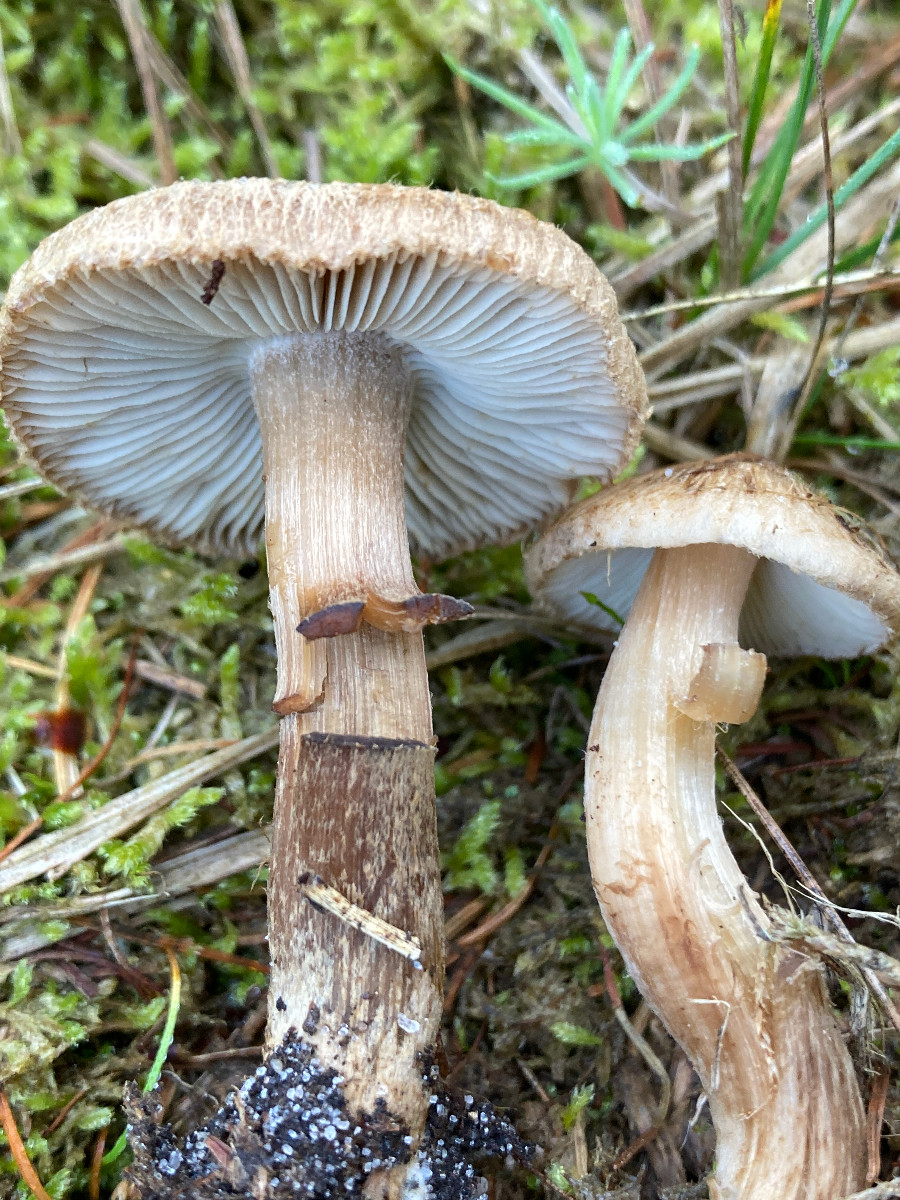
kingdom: Fungi
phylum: Basidiomycota
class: Agaricomycetes
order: Agaricales
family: Inocybaceae
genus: Inocybe
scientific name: Inocybe
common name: trævlhat
